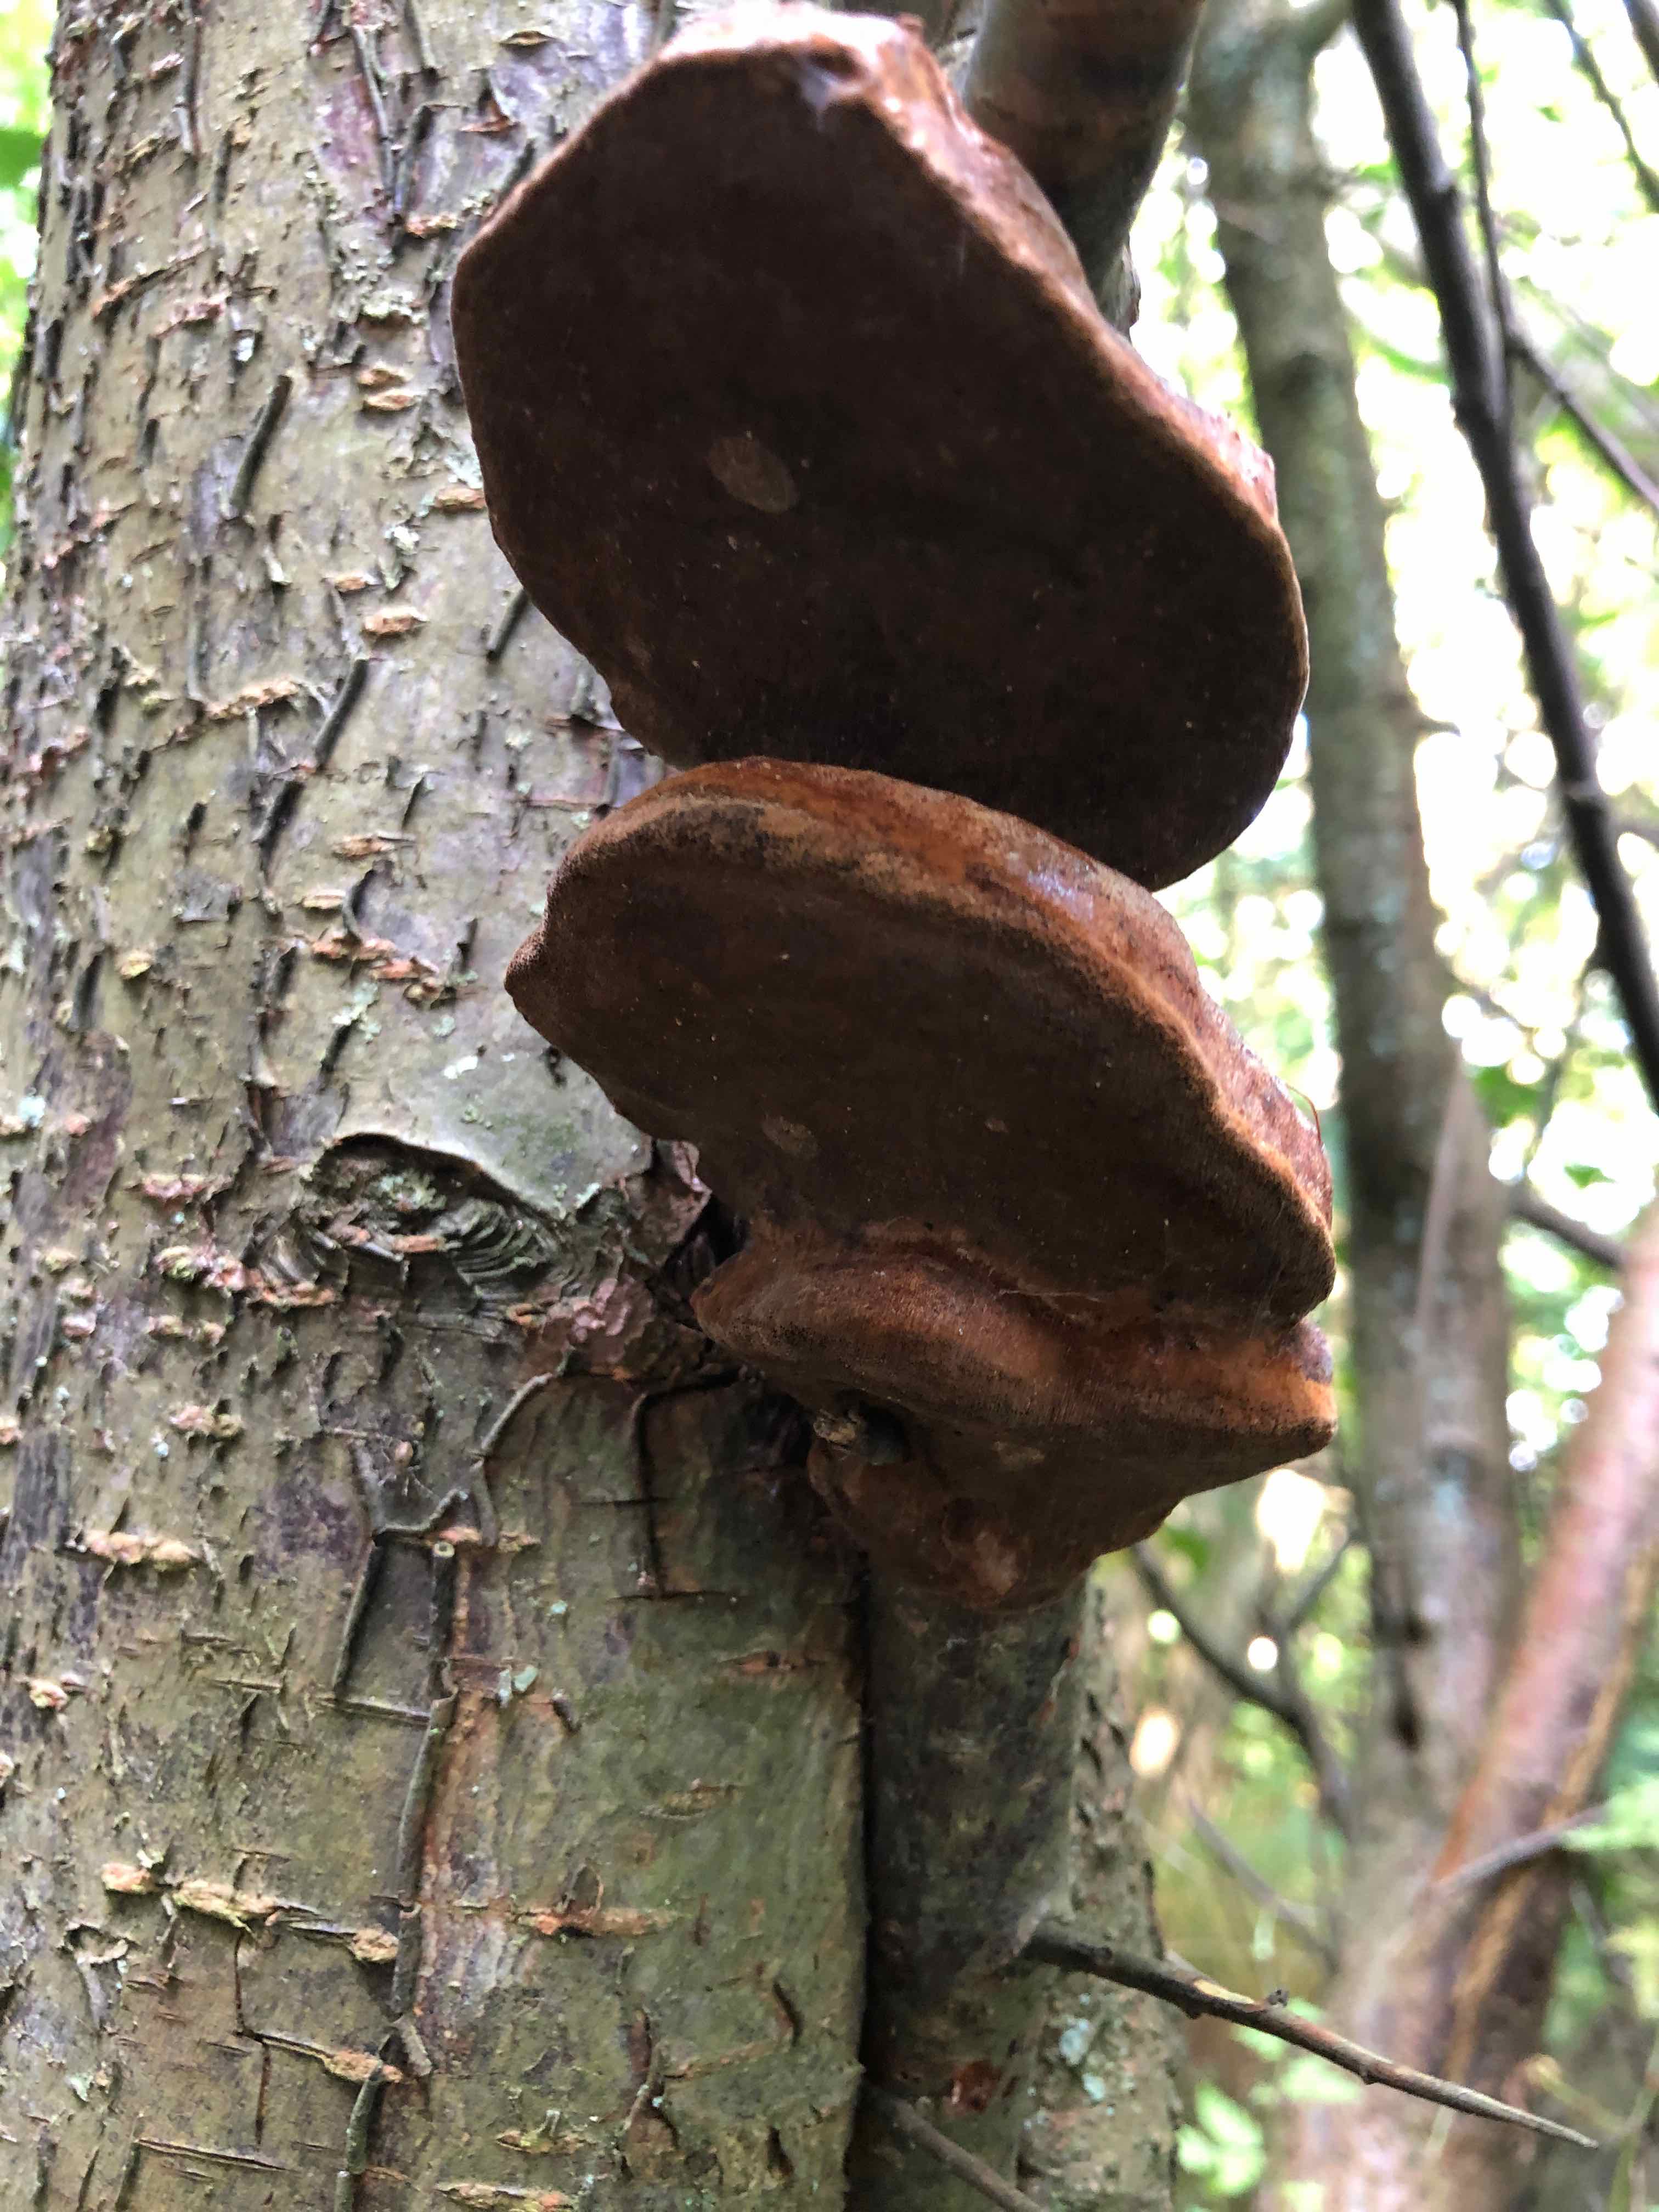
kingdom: Fungi
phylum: Basidiomycota
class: Agaricomycetes
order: Hymenochaetales
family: Hymenochaetaceae
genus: Phellinus
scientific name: Phellinus pomaceus
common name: blomme-ildporesvamp
